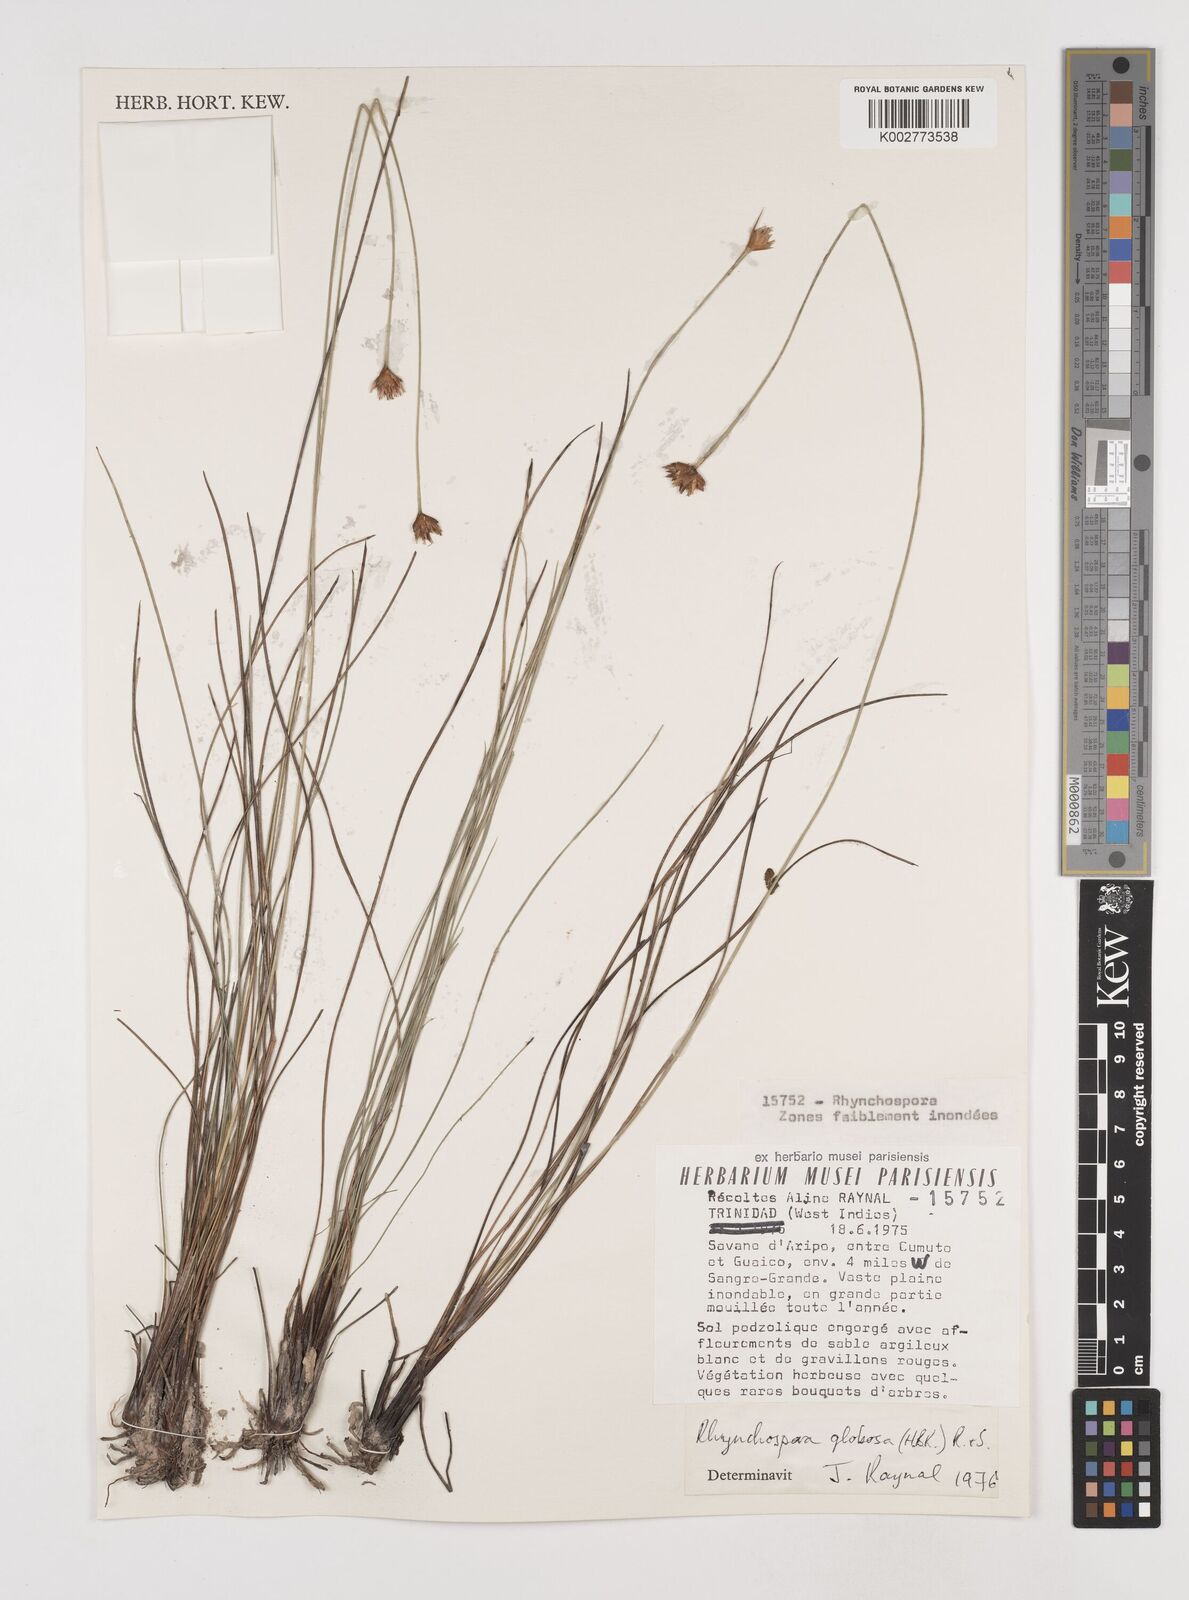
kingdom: Plantae
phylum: Tracheophyta
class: Liliopsida
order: Poales
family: Cyperaceae
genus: Rhynchospora
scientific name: Rhynchospora globosa
